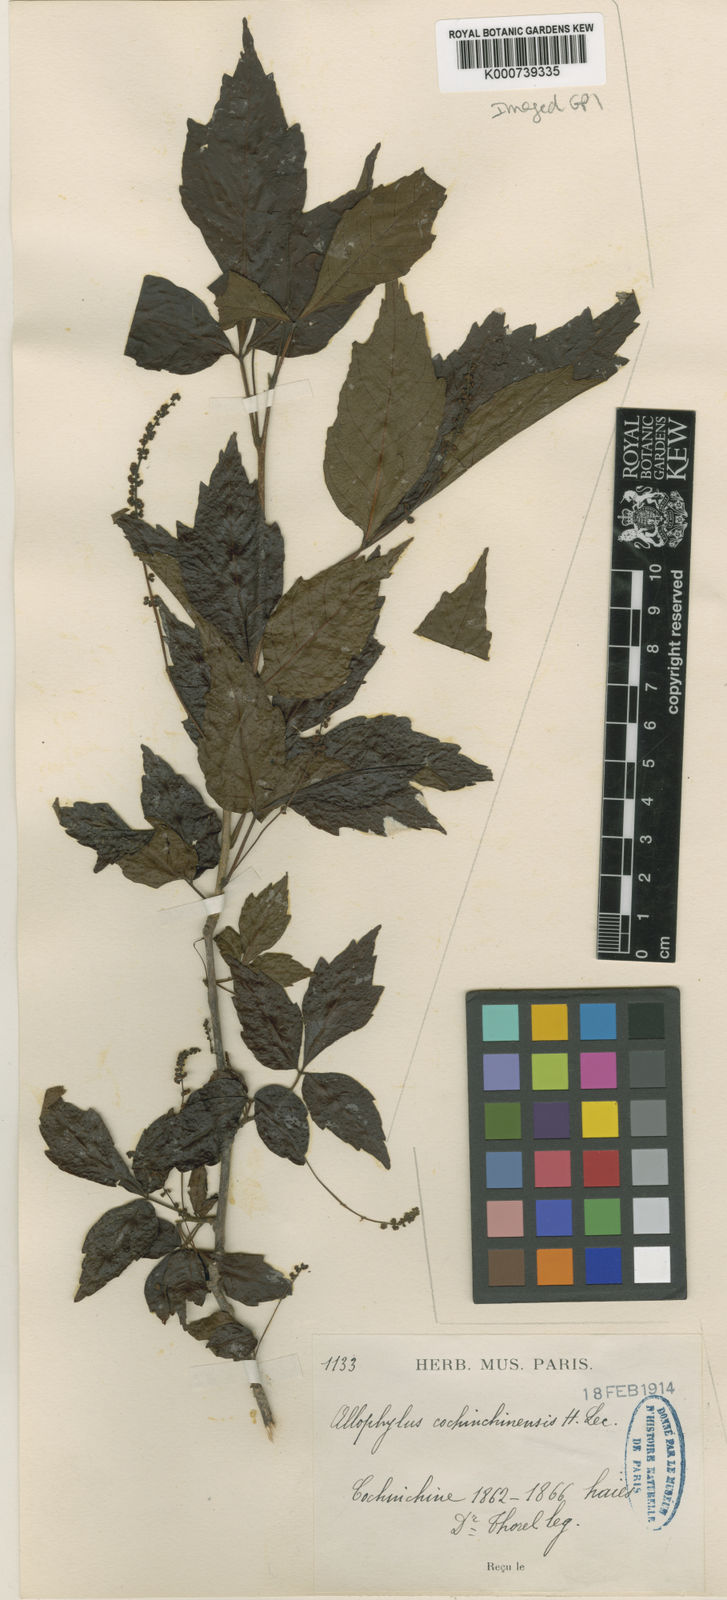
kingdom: Plantae
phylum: Tracheophyta
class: Magnoliopsida
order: Sapindales
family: Sapindaceae
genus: Allophylus
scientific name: Allophylus cochinchinensis
